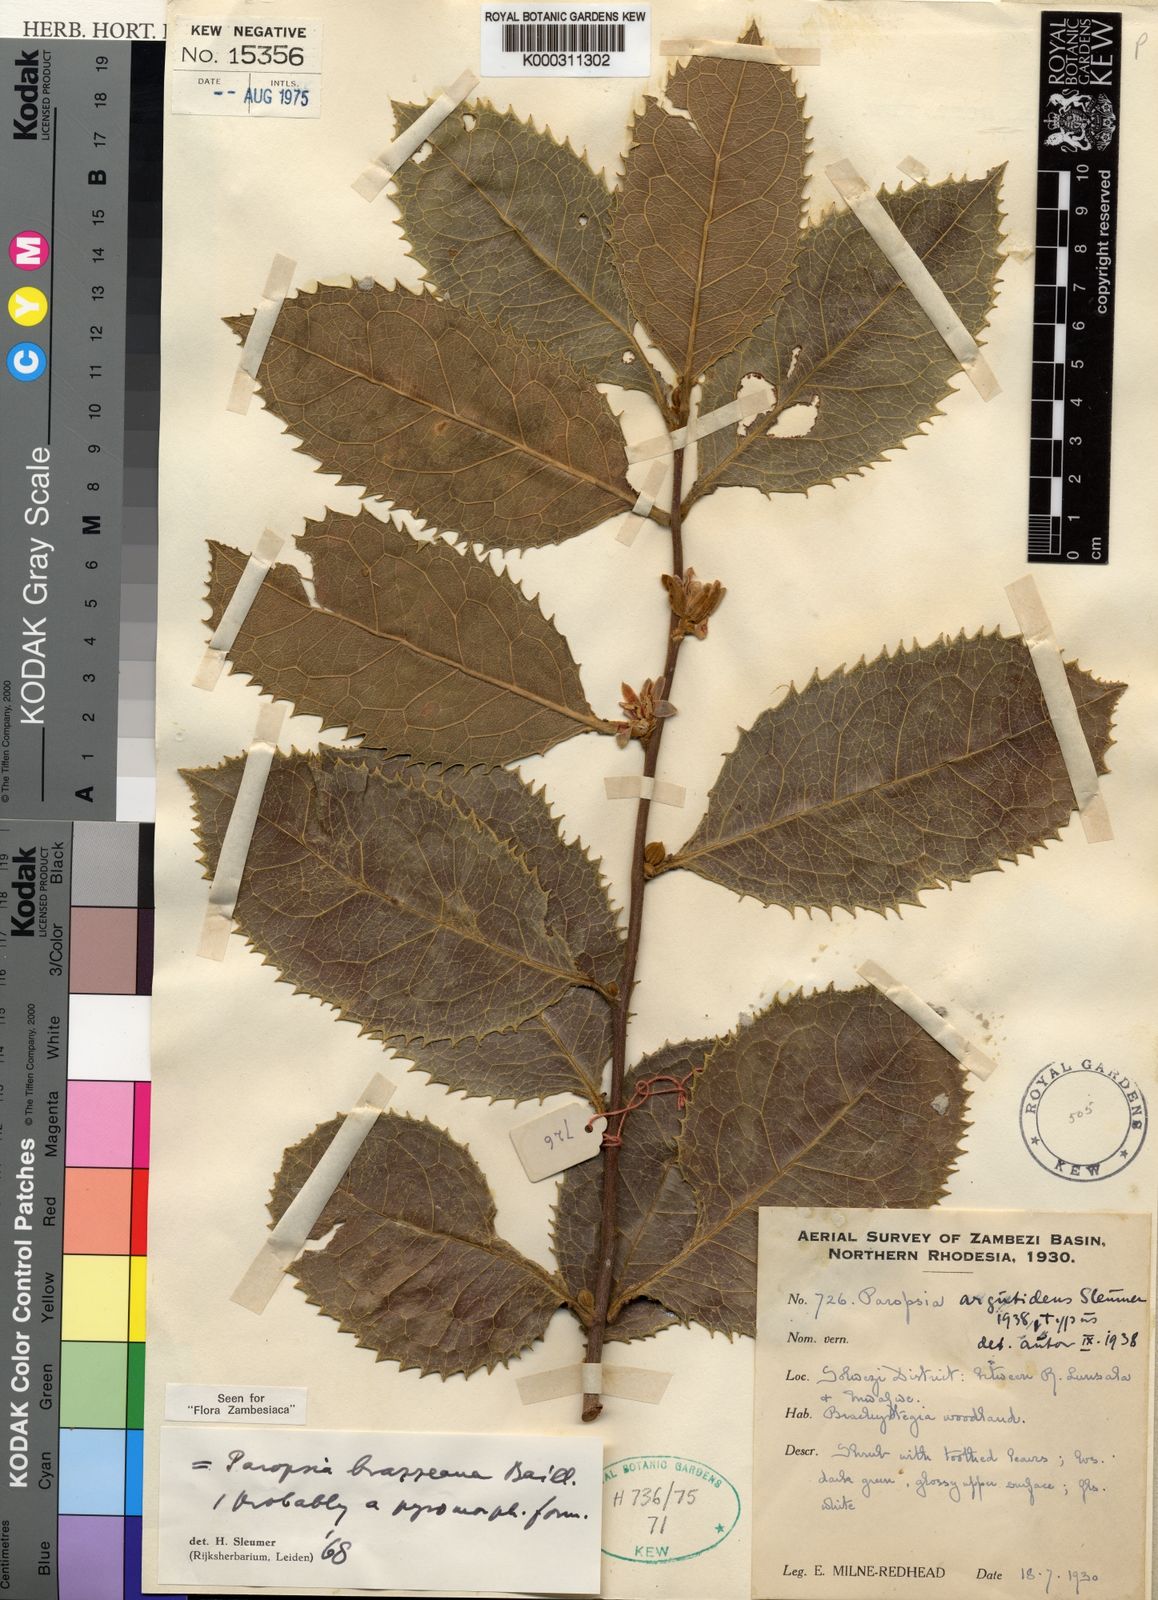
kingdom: Plantae
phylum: Tracheophyta
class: Magnoliopsida
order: Malpighiales
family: Passifloraceae
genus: Paropsia
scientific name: Paropsia brazzaeana
